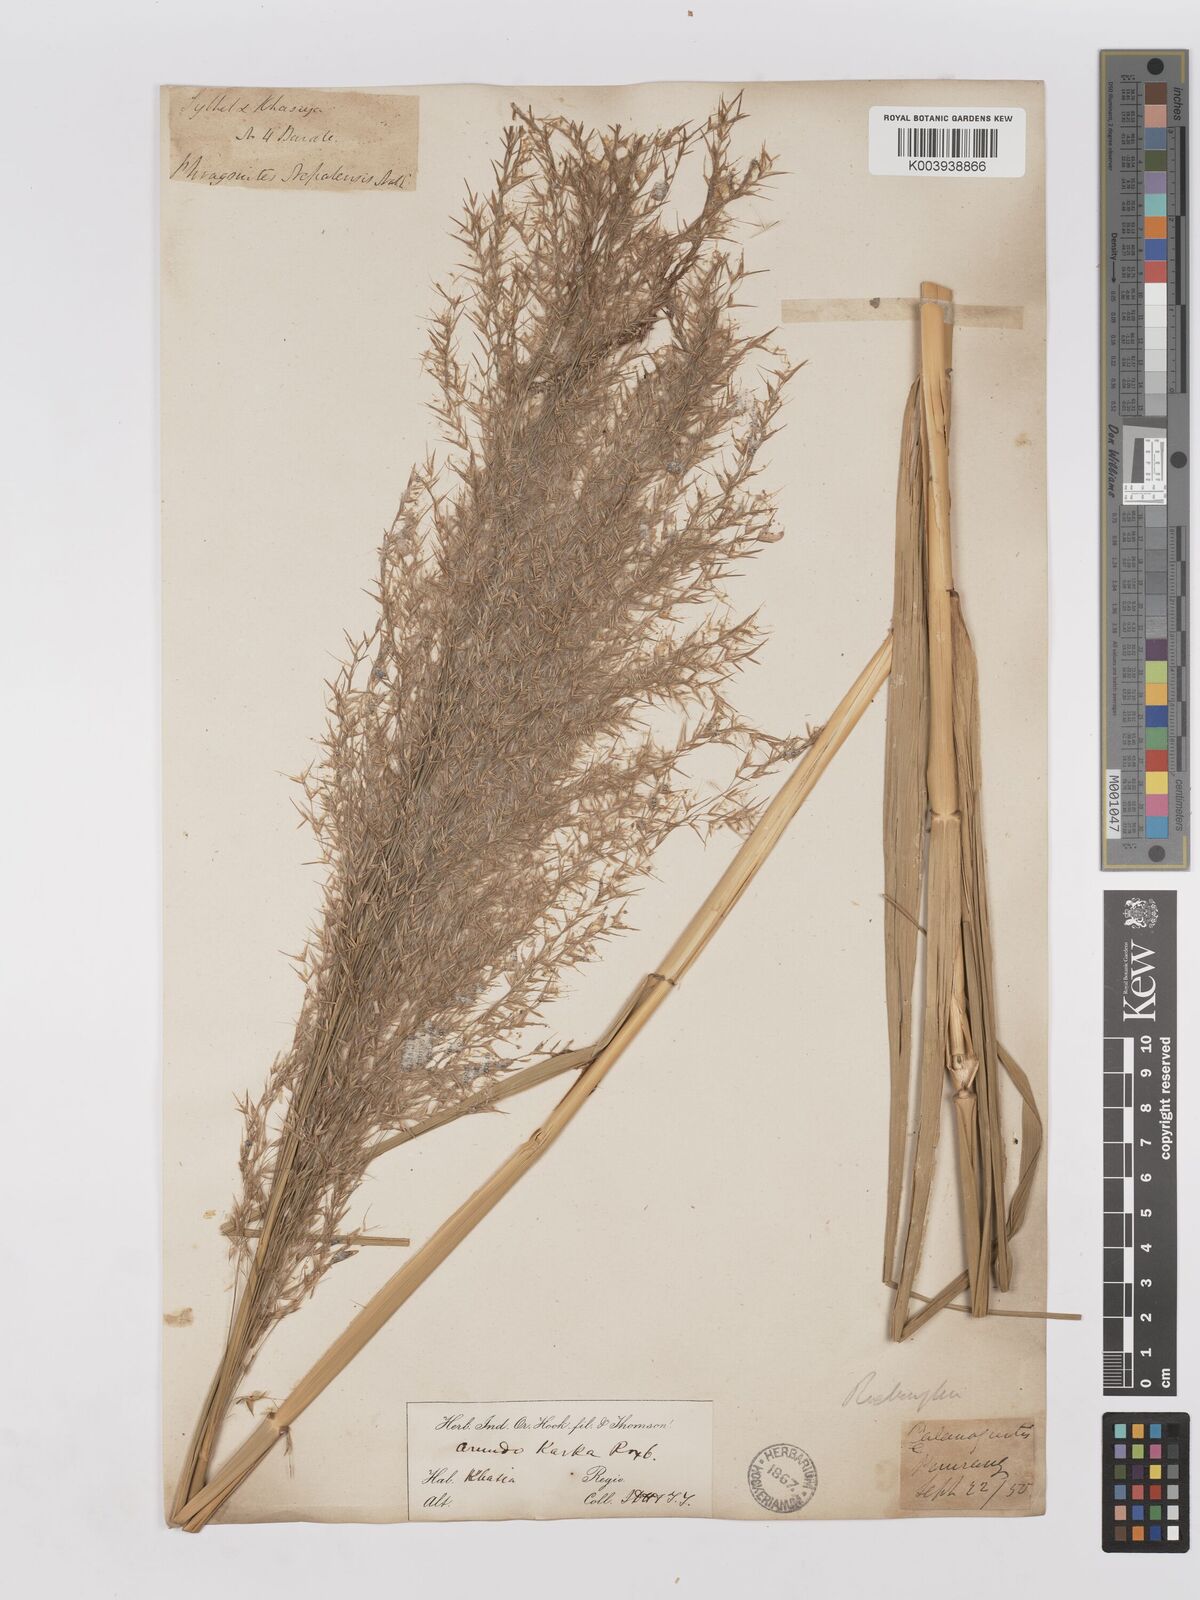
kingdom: Plantae
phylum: Tracheophyta
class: Liliopsida
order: Poales
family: Poaceae
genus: Phragmites
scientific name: Phragmites karka
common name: Tropical reed
